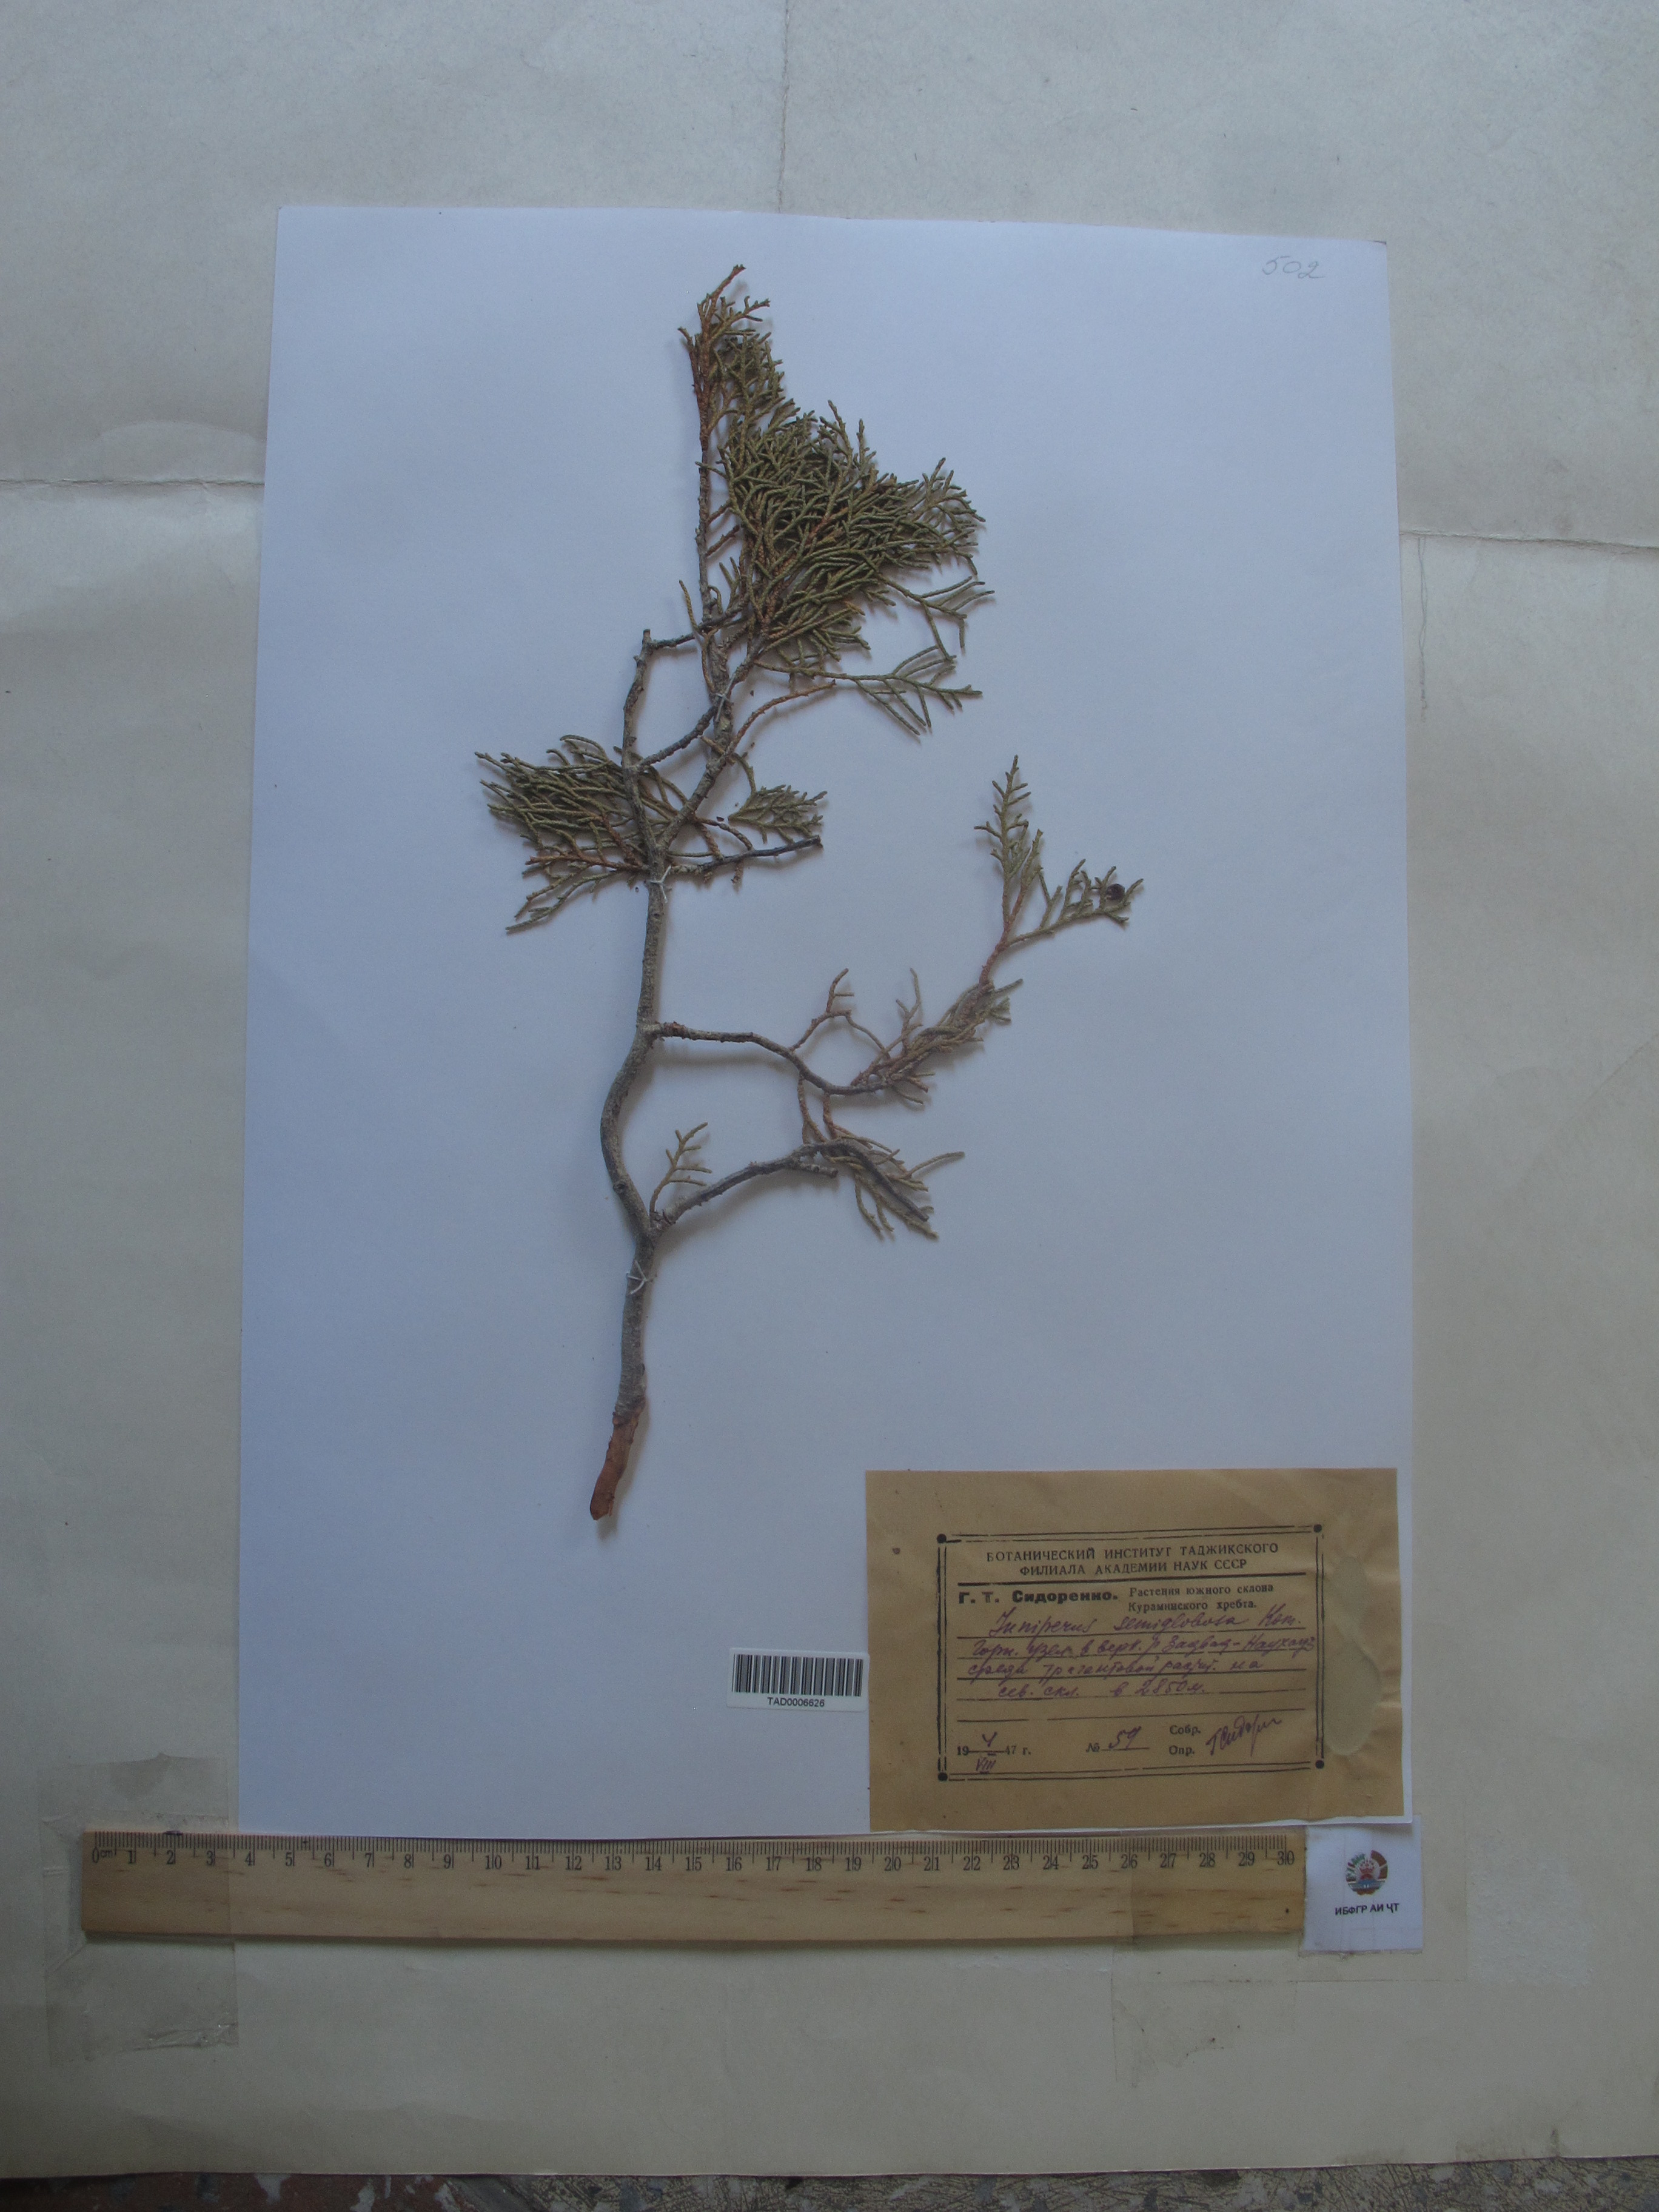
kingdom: Plantae
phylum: Tracheophyta
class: Pinopsida
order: Pinales
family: Cupressaceae
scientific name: Cupressaceae
